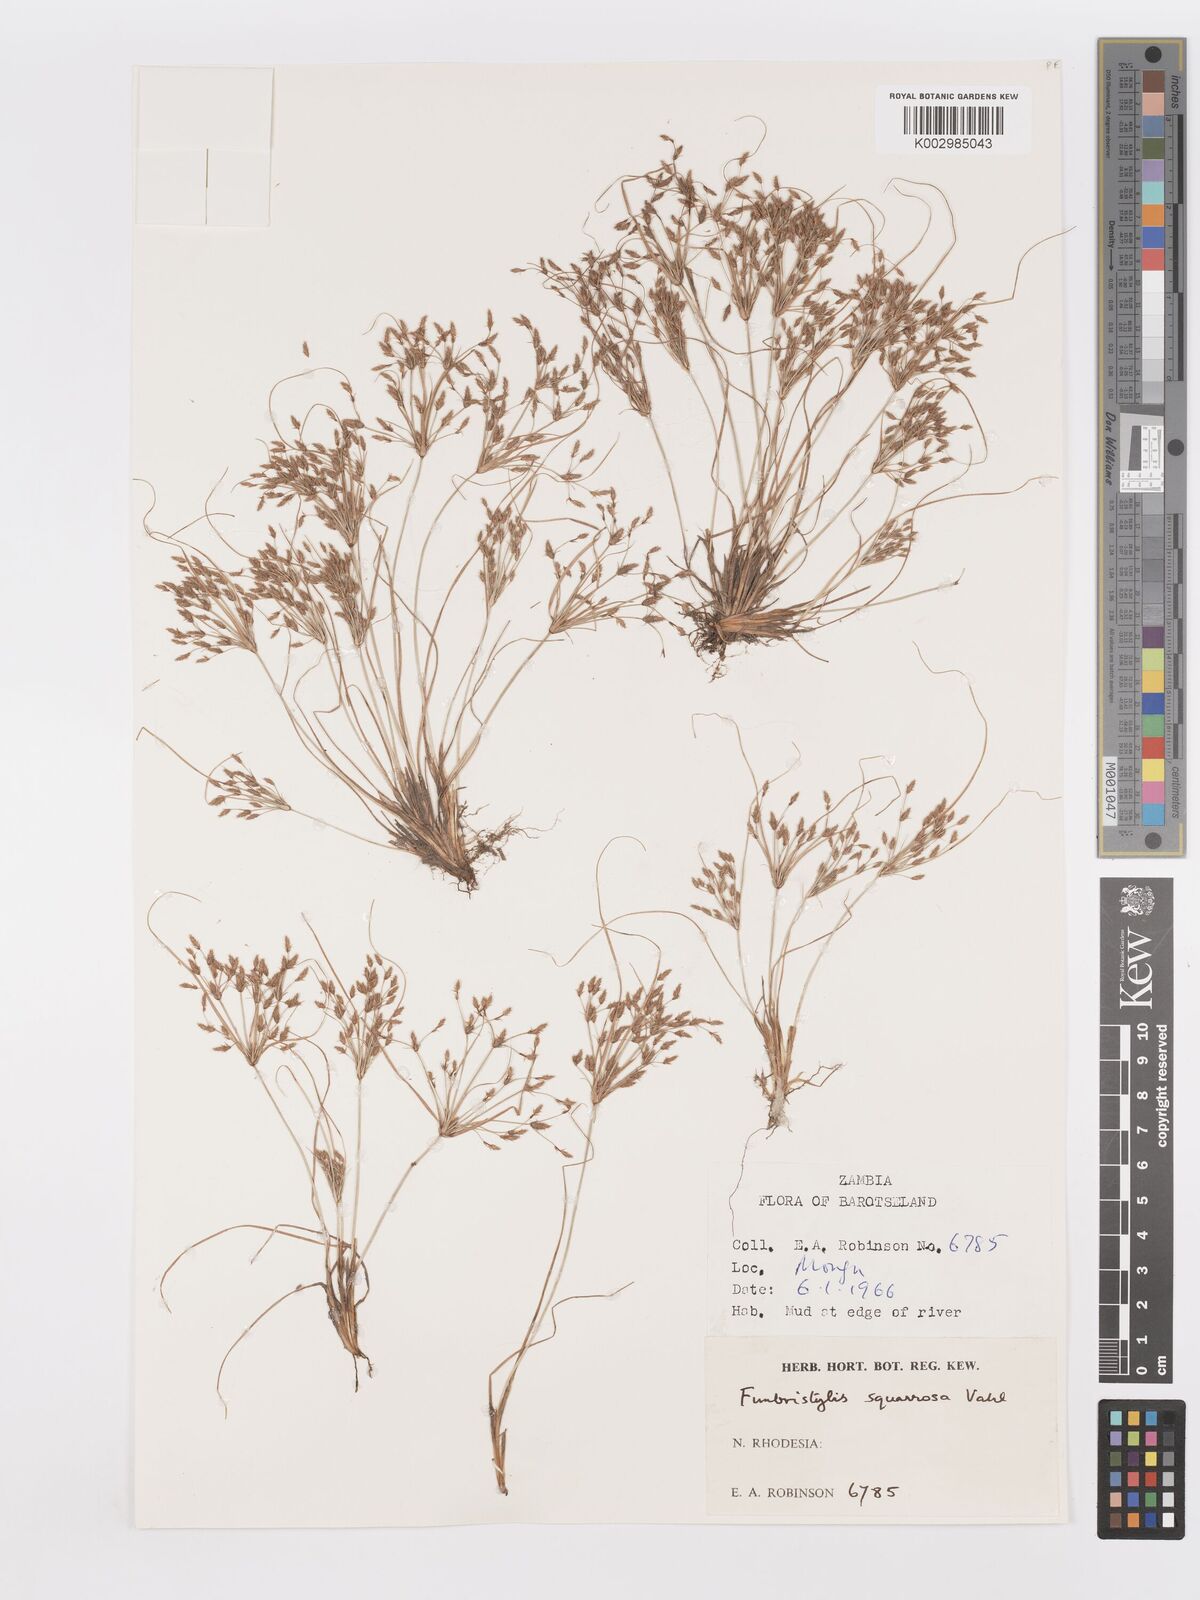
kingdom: Plantae
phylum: Tracheophyta
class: Liliopsida
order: Poales
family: Cyperaceae
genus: Fimbristylis
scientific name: Fimbristylis squarrosa
